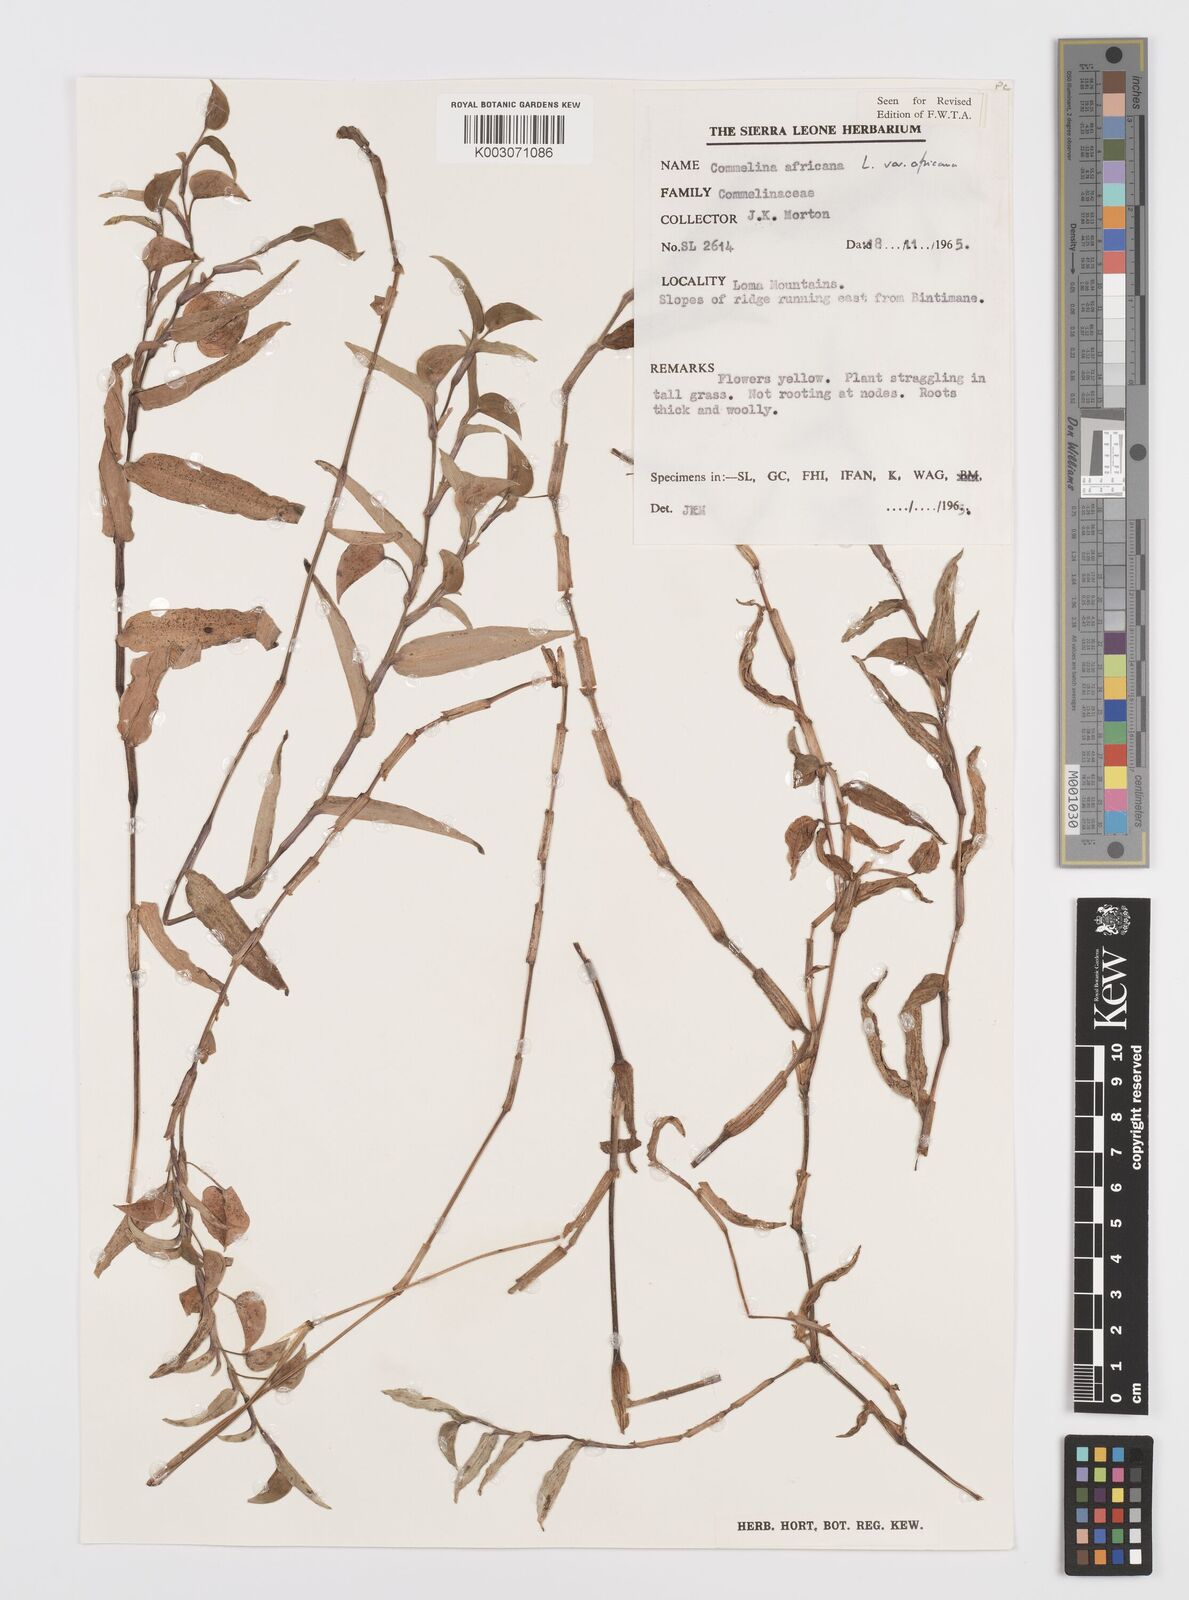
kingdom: Plantae
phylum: Tracheophyta
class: Liliopsida
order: Commelinales
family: Commelinaceae
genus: Commelina
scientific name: Commelina africana
